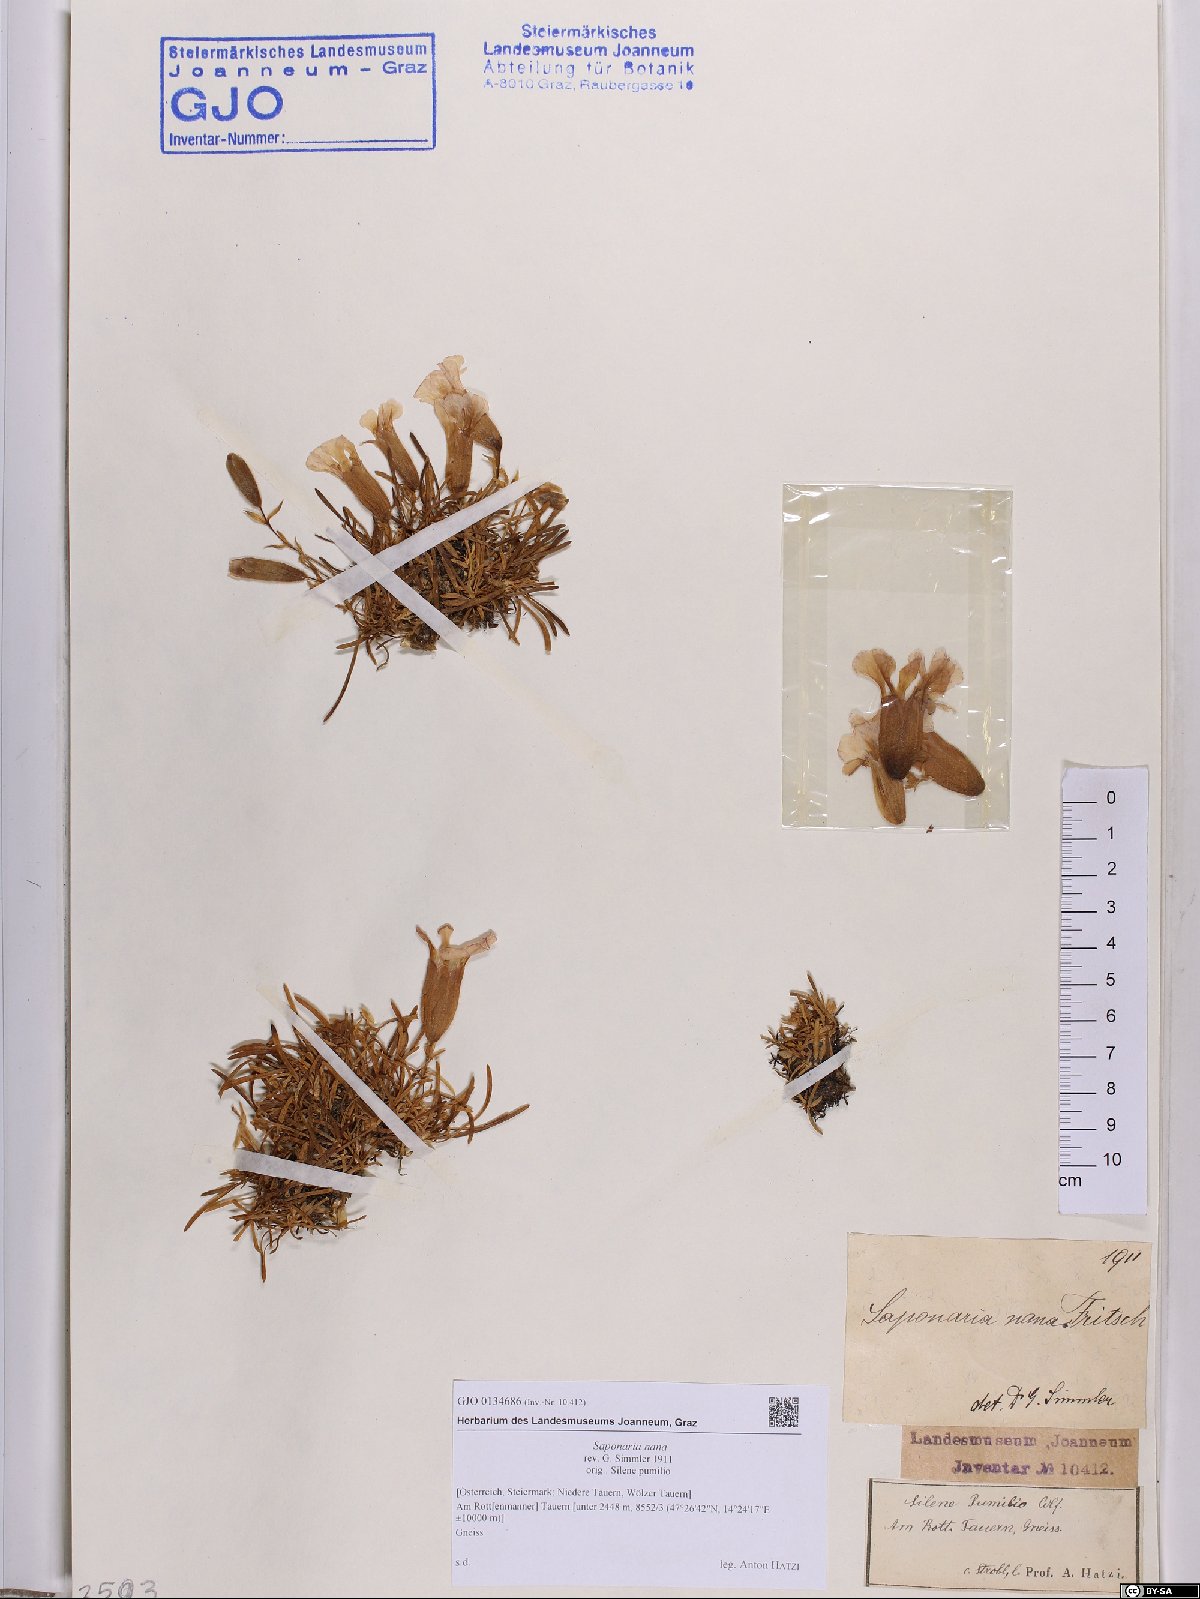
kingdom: Plantae
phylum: Tracheophyta
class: Magnoliopsida
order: Caryophyllales
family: Caryophyllaceae
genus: Saponaria
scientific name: Saponaria pumila
